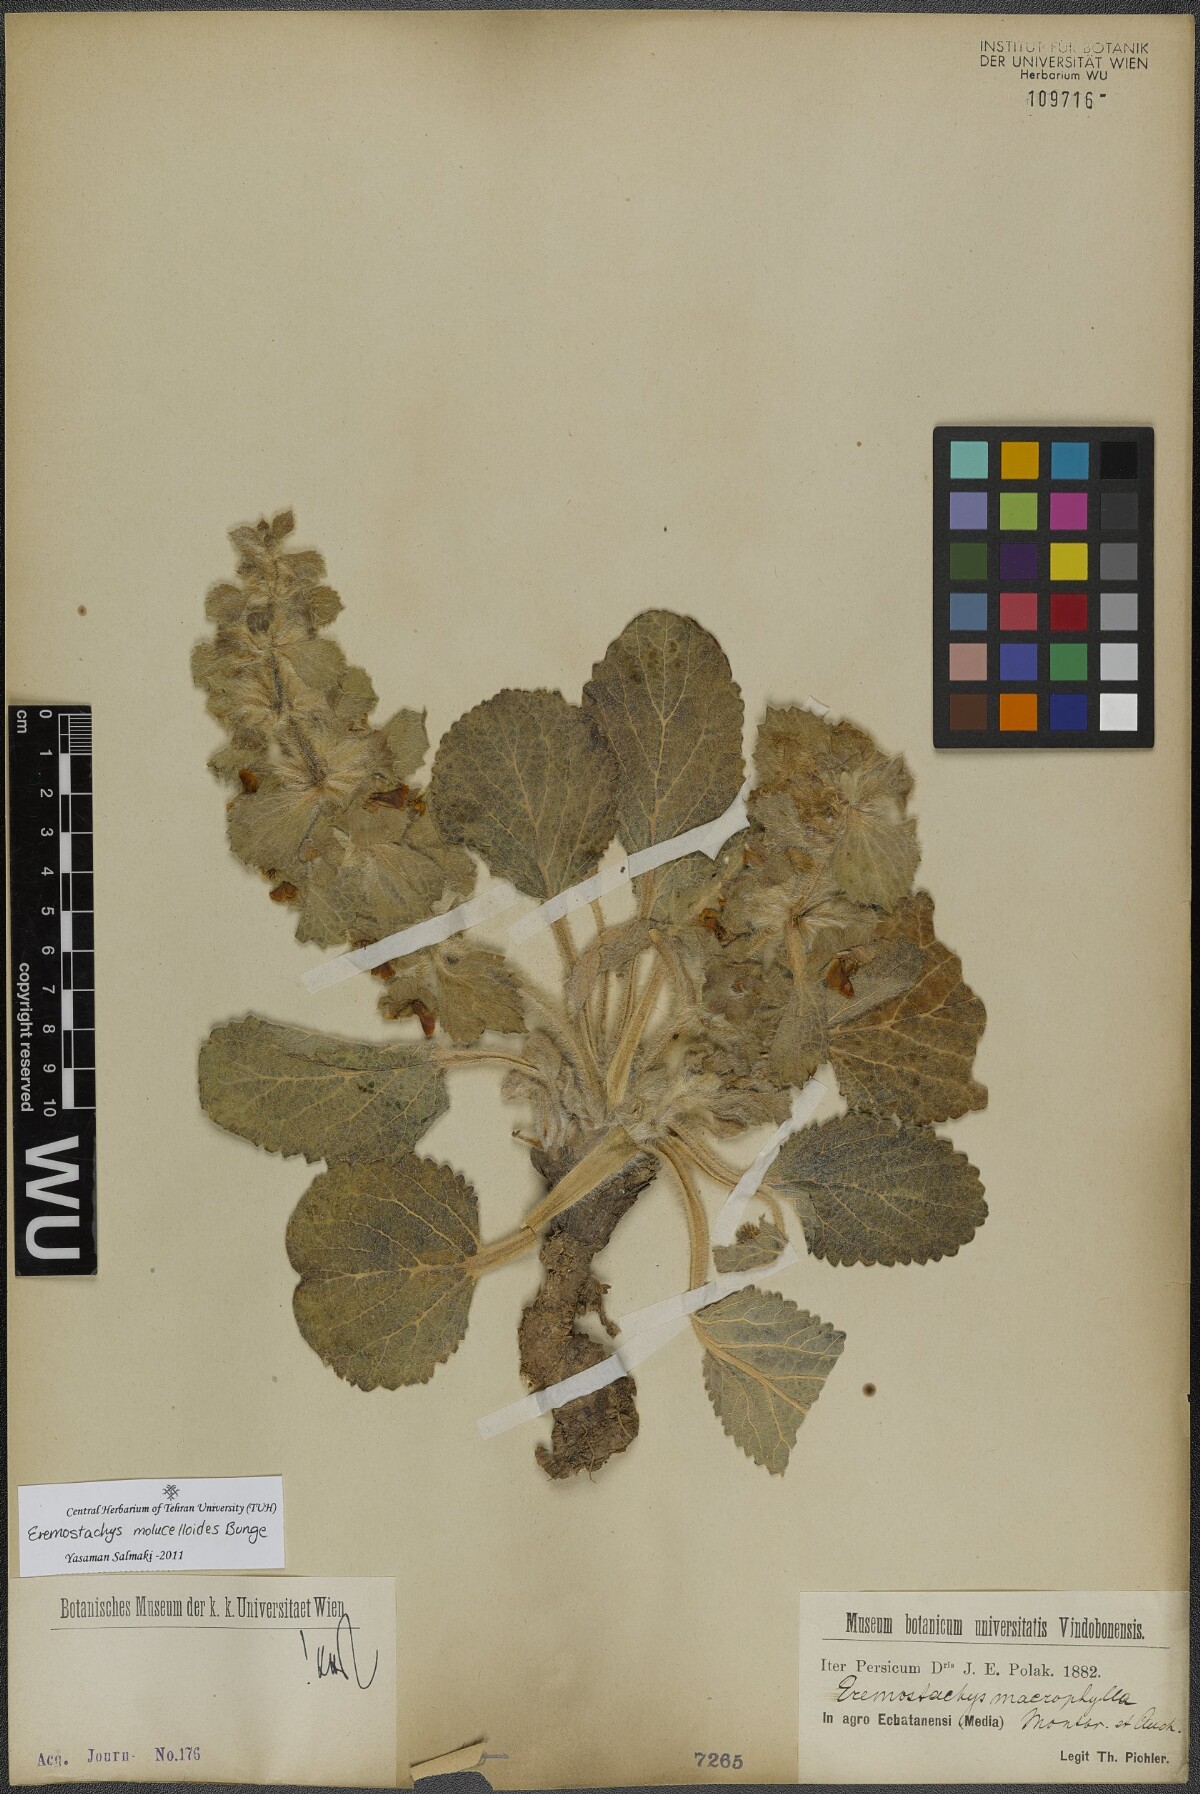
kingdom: Plantae
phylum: Tracheophyta
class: Magnoliopsida
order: Lamiales
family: Lamiaceae
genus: Phlomoides
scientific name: Phlomoides molucelloides
